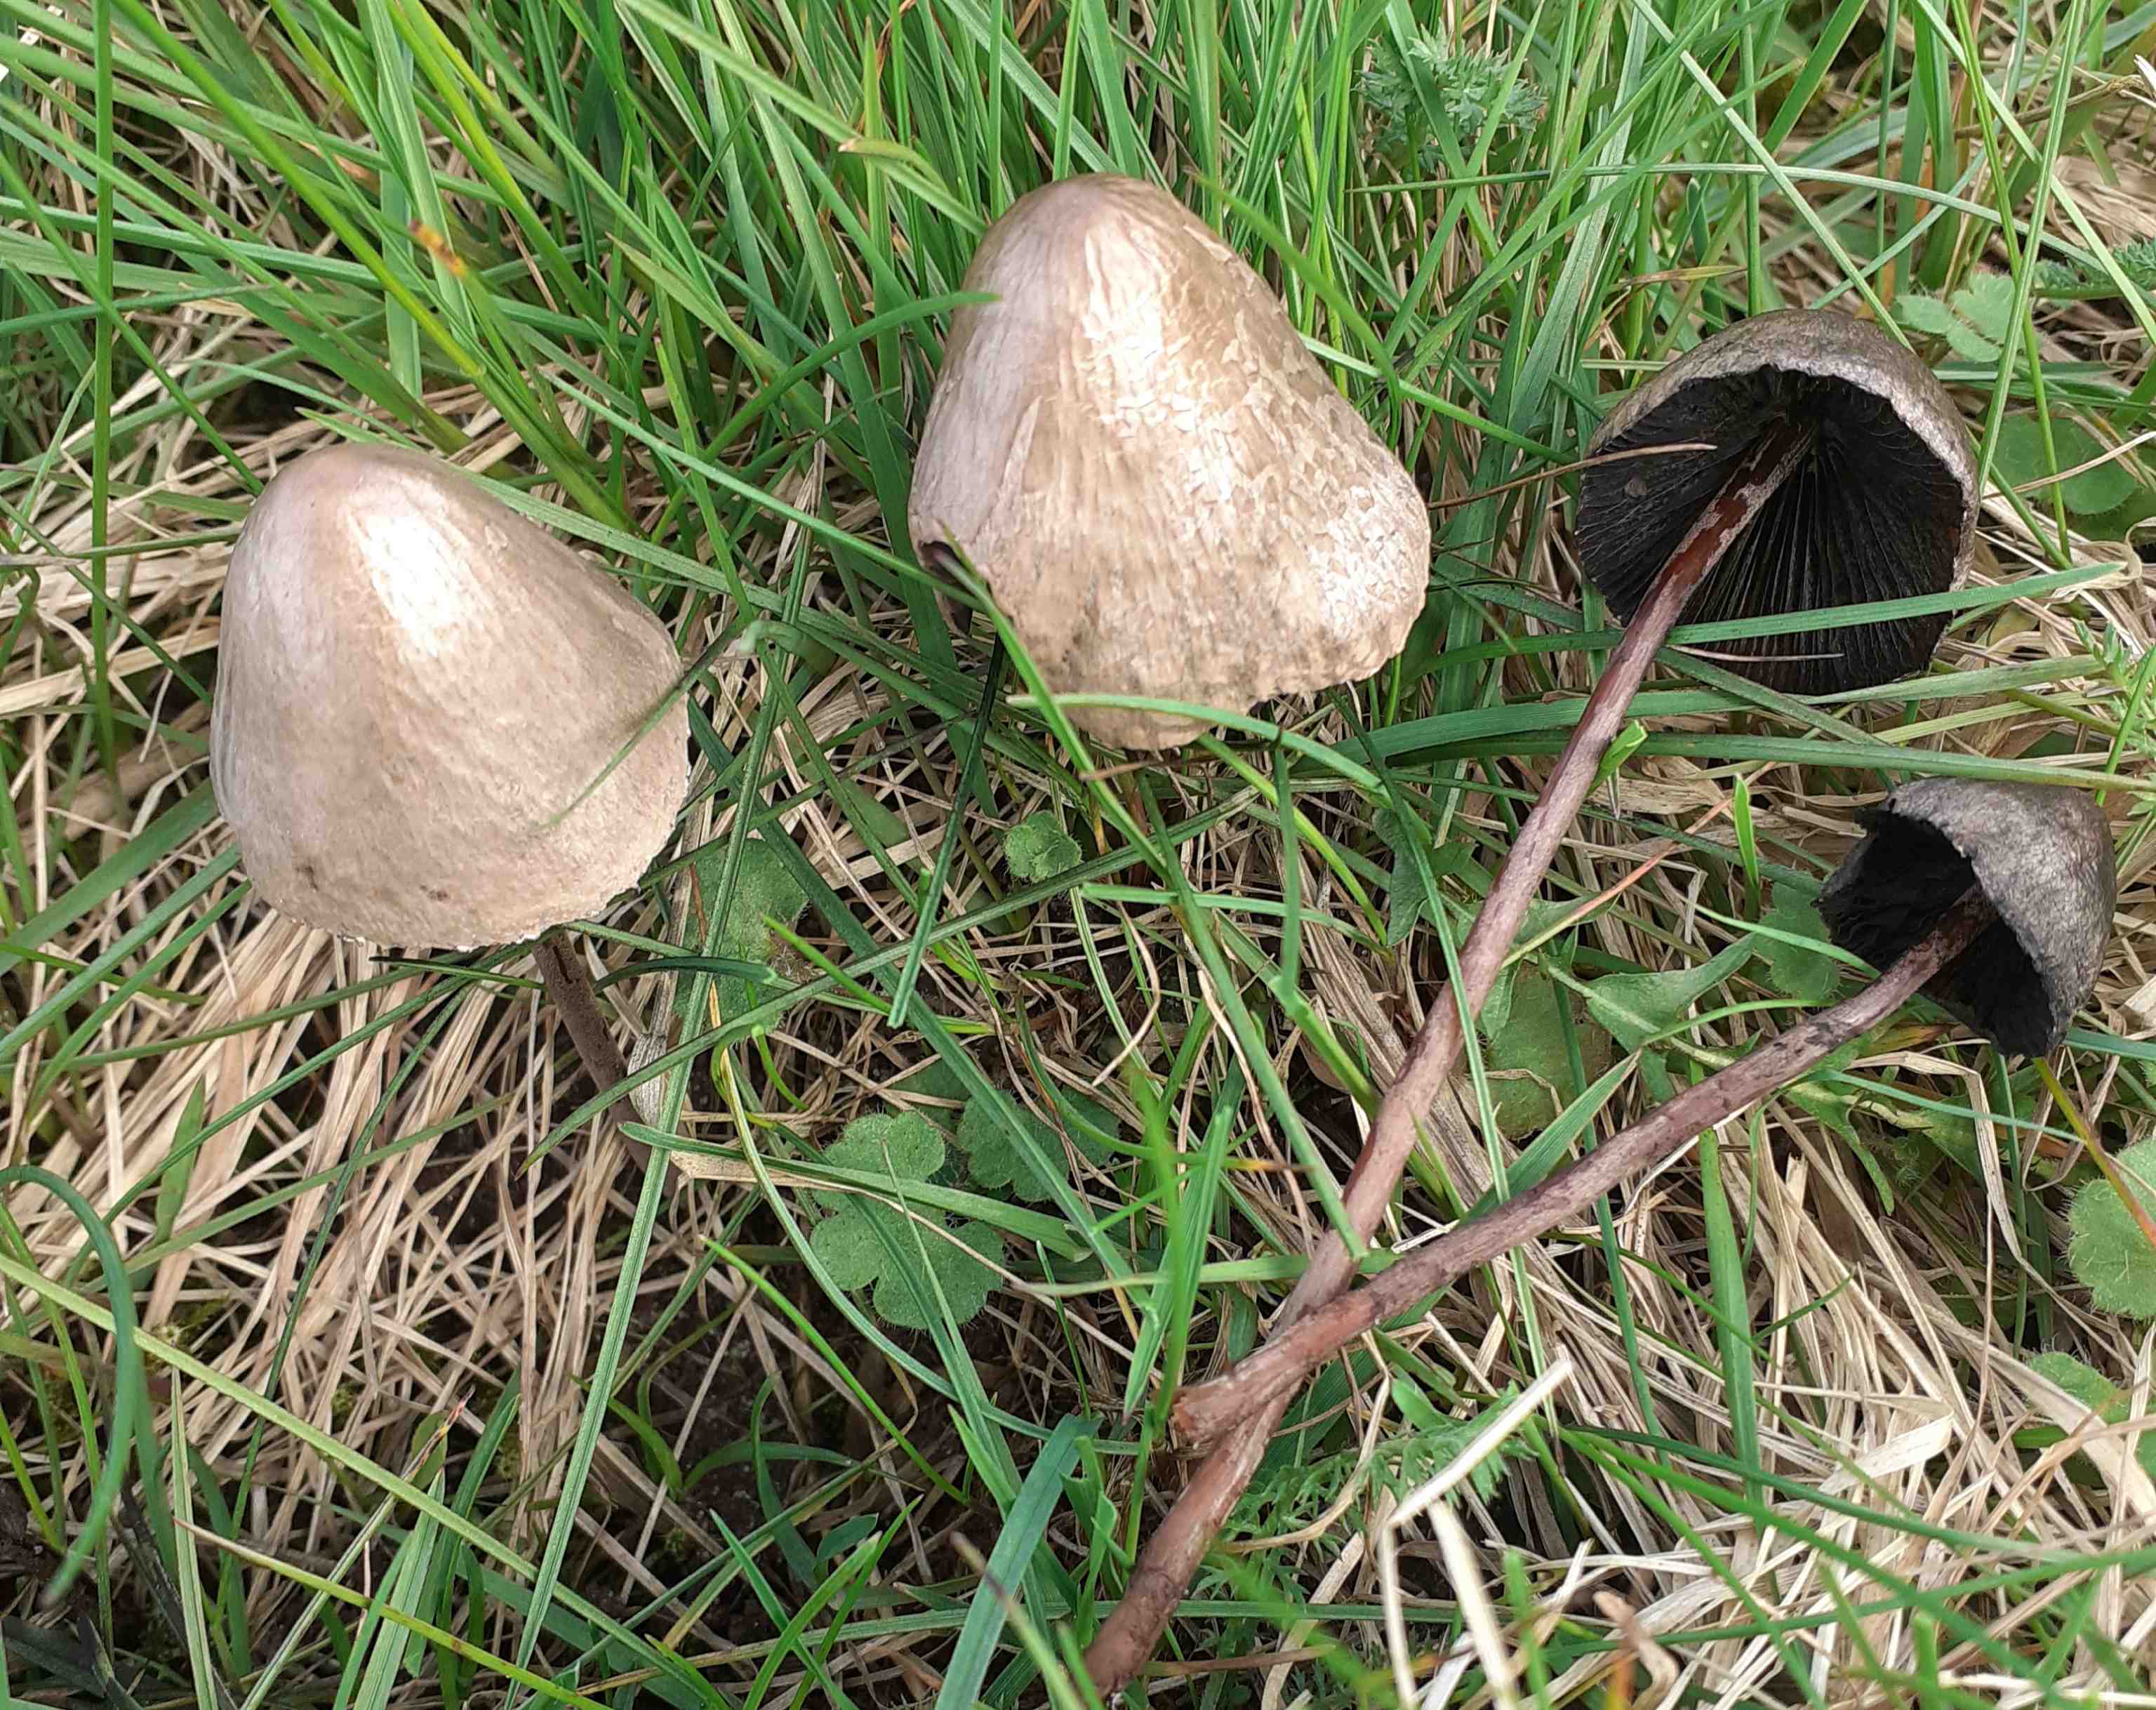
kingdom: Fungi
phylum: Basidiomycota
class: Agaricomycetes
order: Agaricales
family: Bolbitiaceae
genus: Panaeolus
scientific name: Panaeolus papilionaceus
